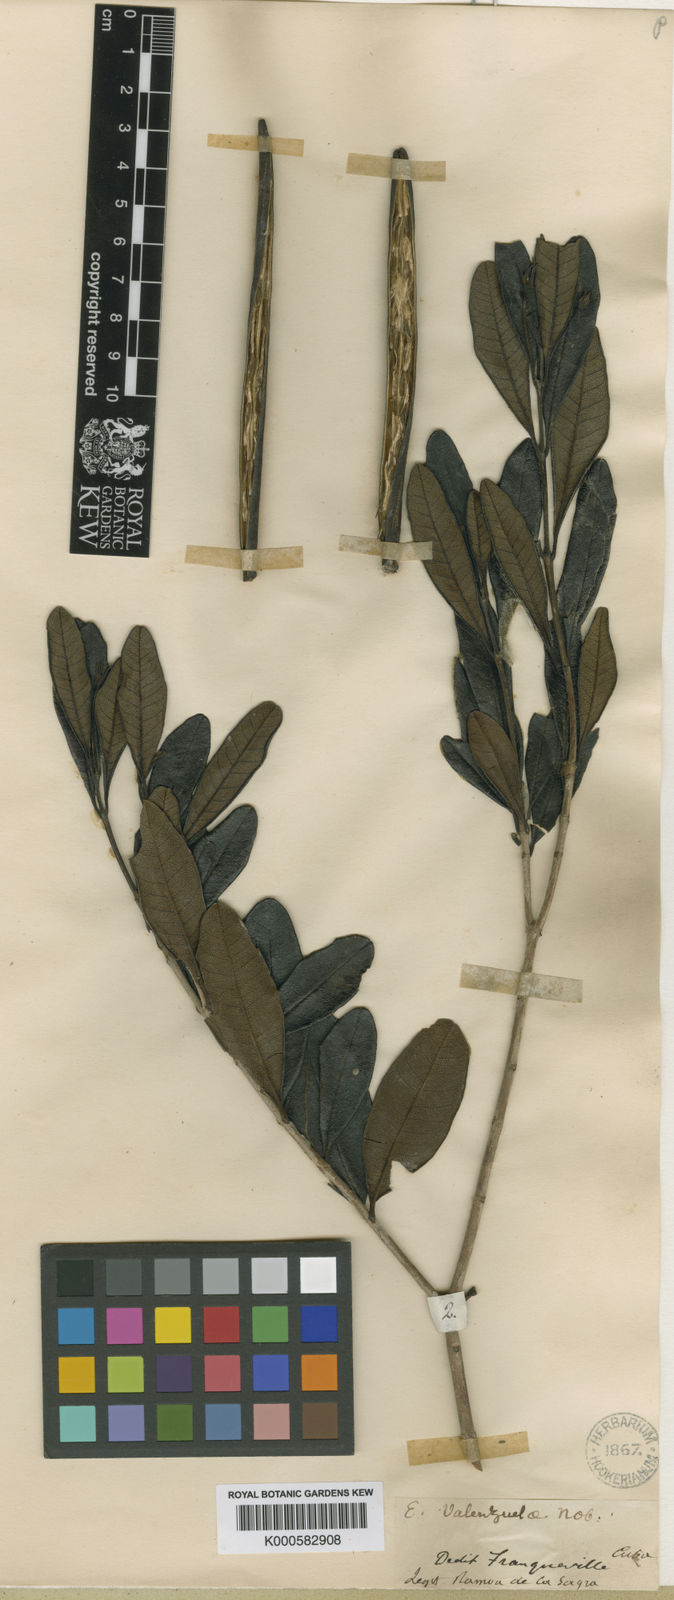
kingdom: Plantae
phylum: Tracheophyta
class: Magnoliopsida
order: Gentianales
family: Apocynaceae
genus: Neobracea
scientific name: Neobracea valenzuelana
